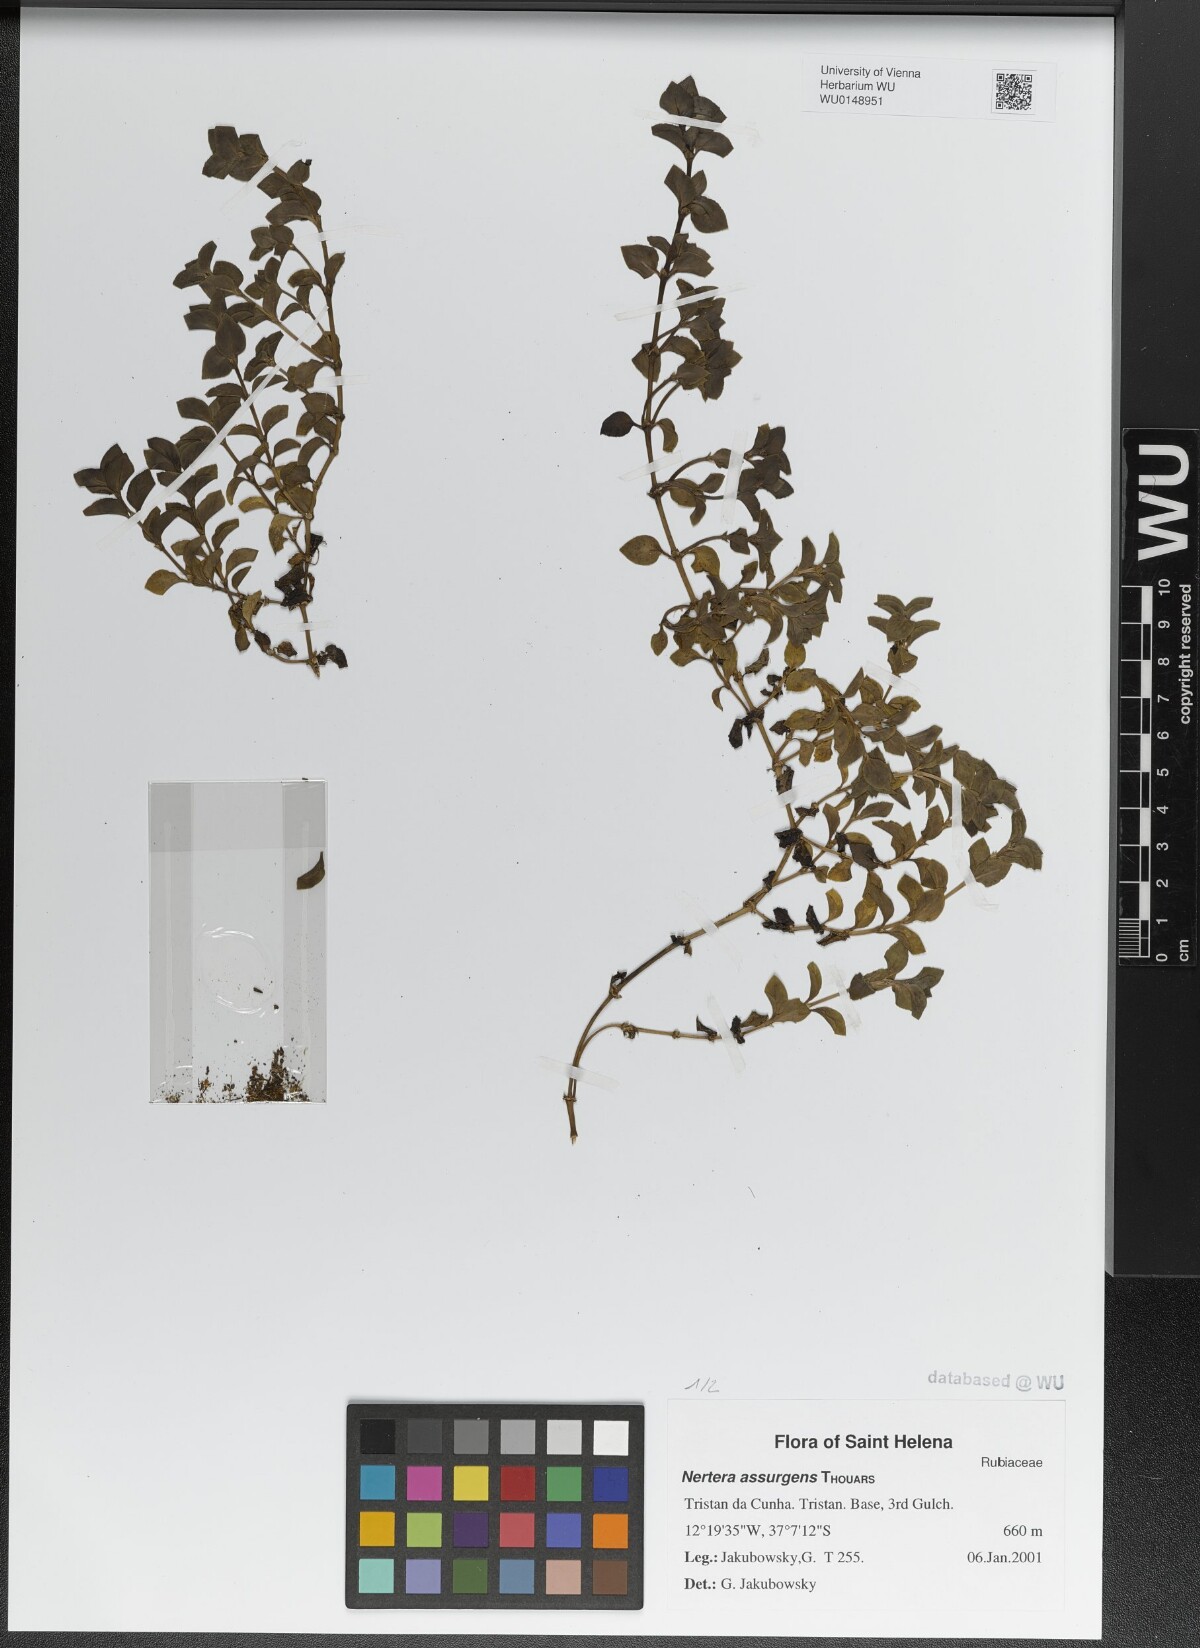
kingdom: Plantae
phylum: Tracheophyta
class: Magnoliopsida
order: Gentianales
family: Rubiaceae
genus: Nertera
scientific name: Nertera granadensis
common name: Beadplant
